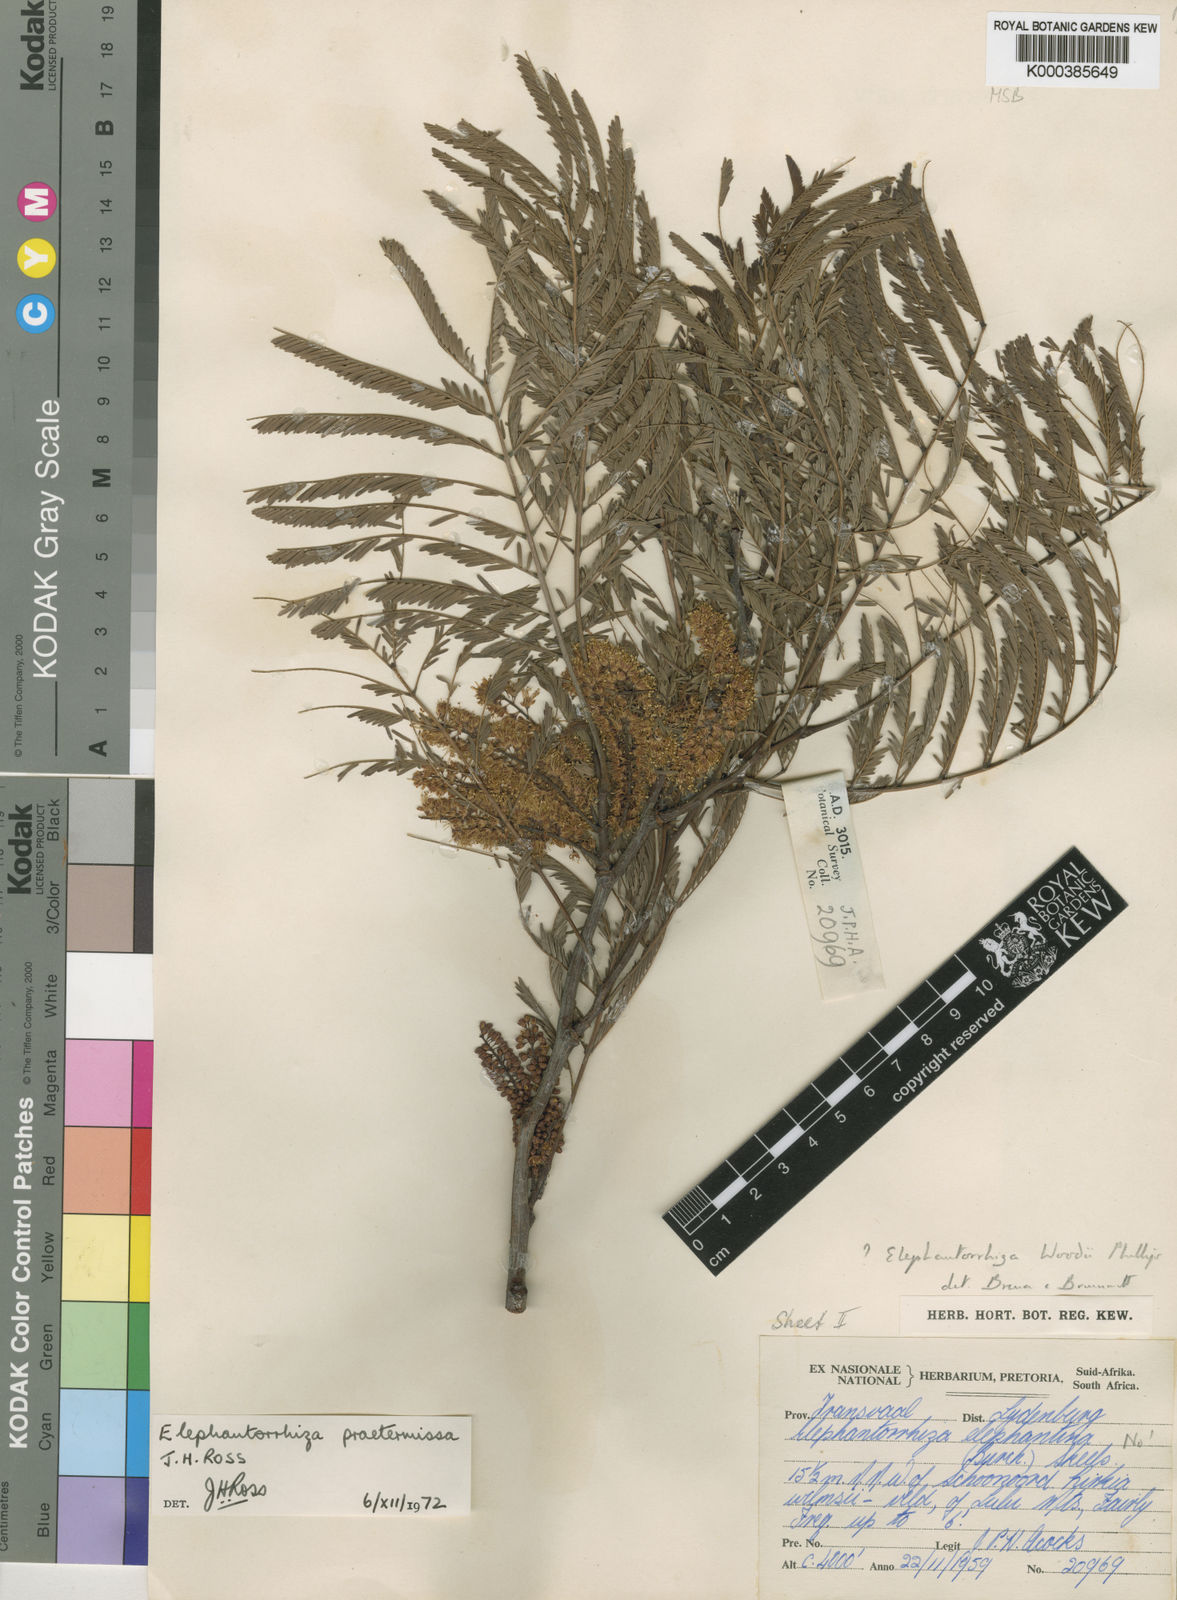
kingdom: Plantae
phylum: Tracheophyta
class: Magnoliopsida
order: Fabales
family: Fabaceae
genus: Elephantorrhiza
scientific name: Elephantorrhiza praetermissa
